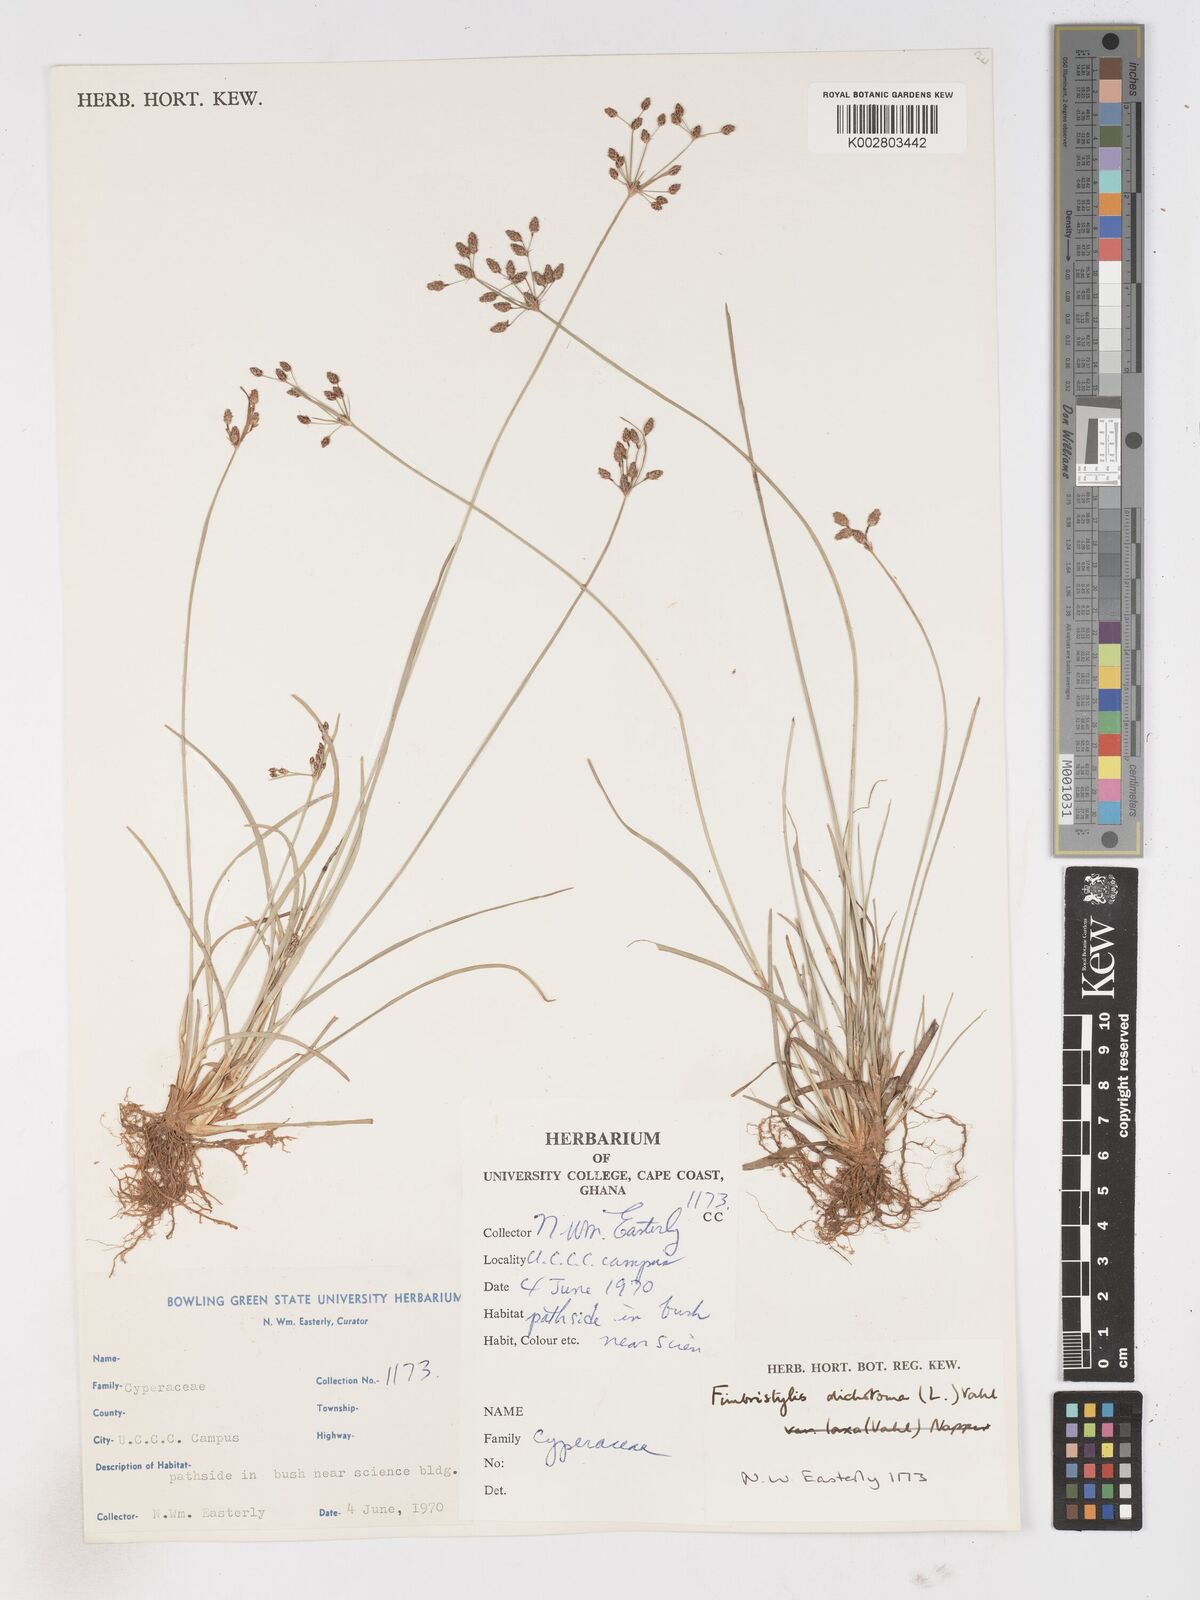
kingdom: Plantae
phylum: Tracheophyta
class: Liliopsida
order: Poales
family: Cyperaceae
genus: Fimbristylis
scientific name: Fimbristylis dichotoma
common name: Forked fimbry
